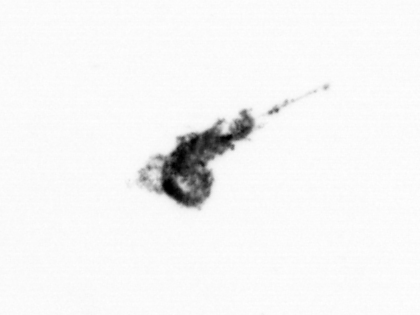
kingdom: Animalia
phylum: Arthropoda
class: Maxillopoda
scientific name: Maxillopoda
